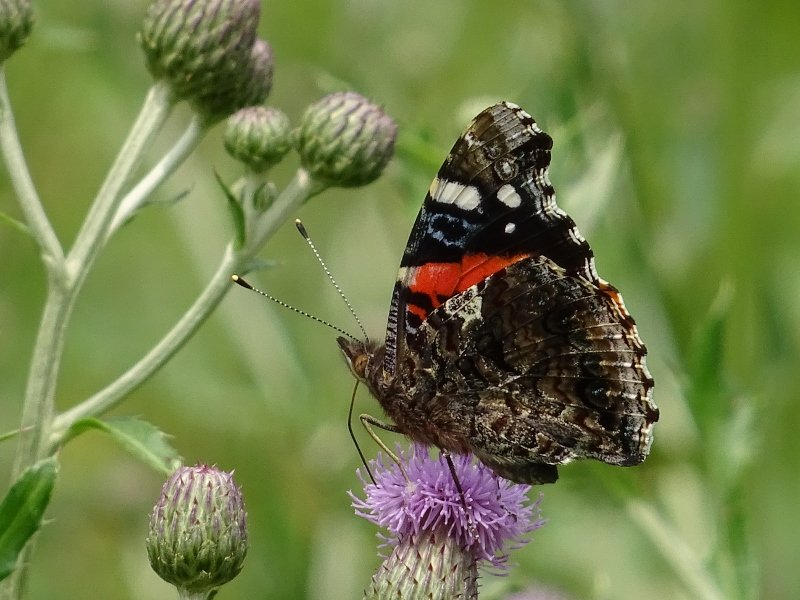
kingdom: Animalia
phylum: Arthropoda
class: Insecta
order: Lepidoptera
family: Nymphalidae
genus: Vanessa
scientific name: Vanessa atalanta
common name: Red Admiral
